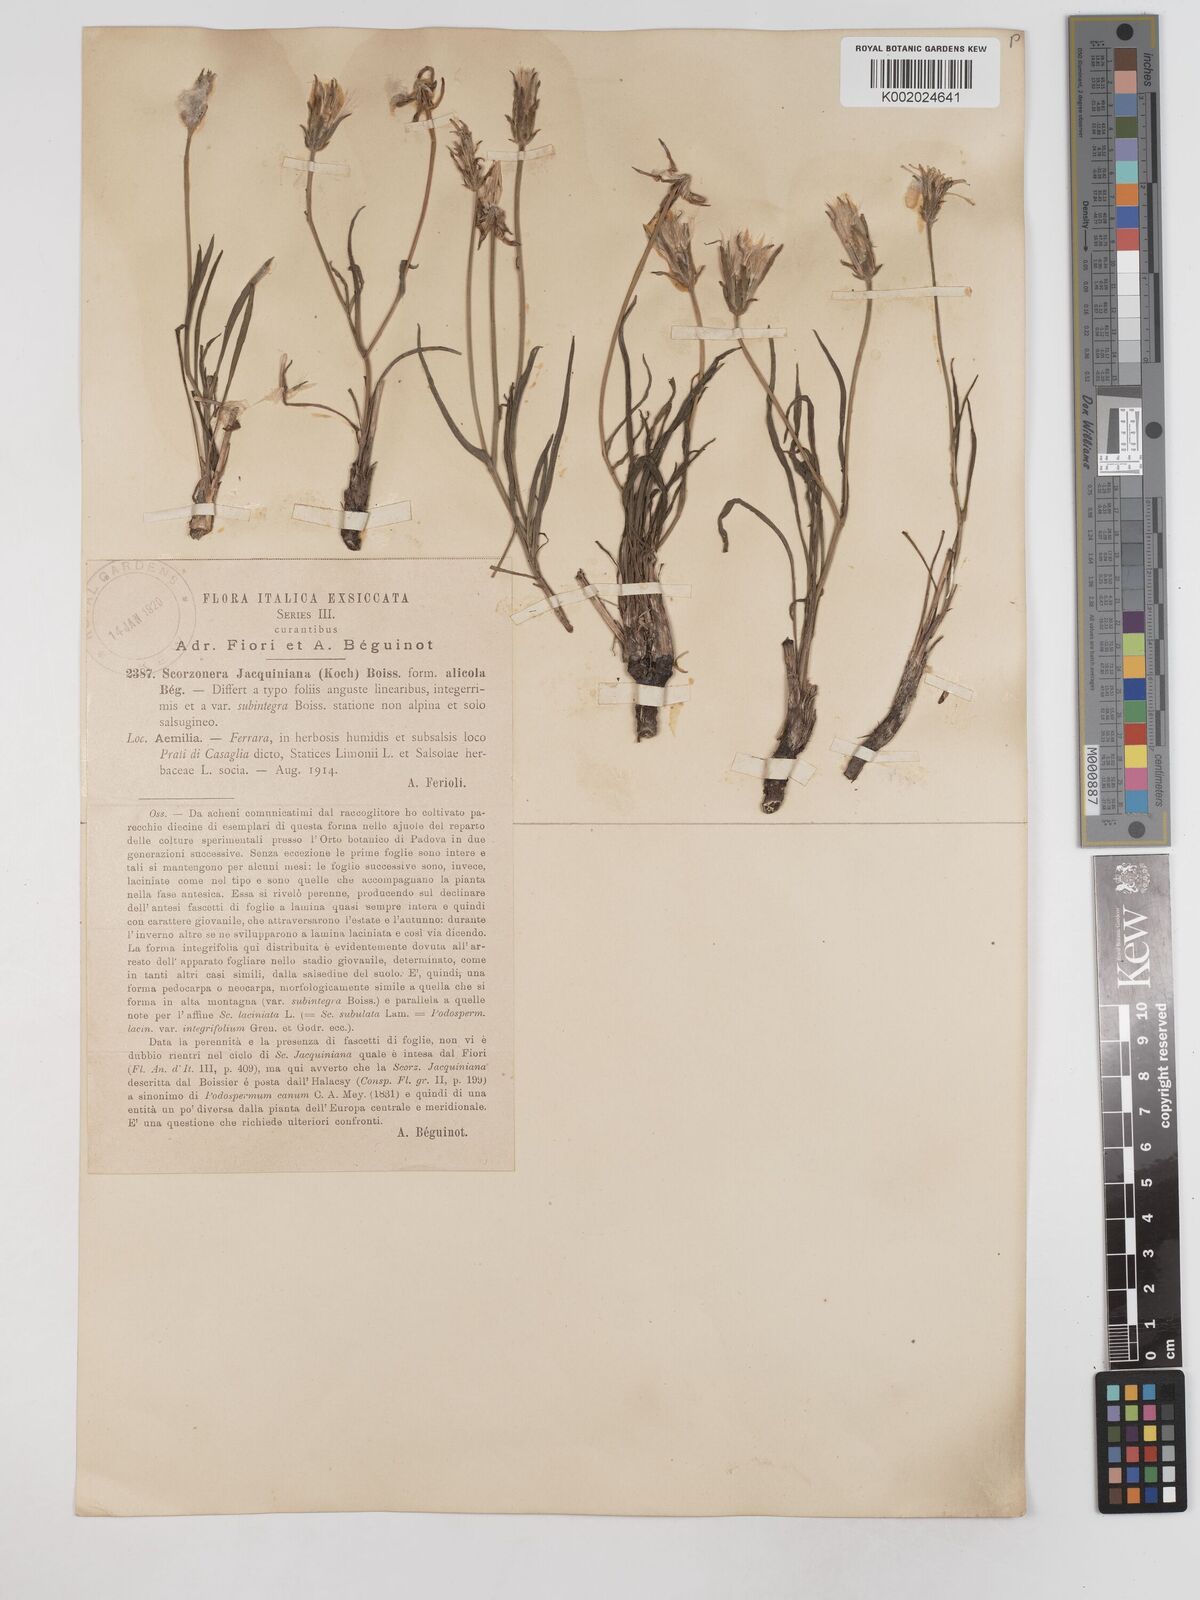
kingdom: Plantae
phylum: Tracheophyta
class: Magnoliopsida
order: Asterales
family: Asteraceae
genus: Scorzonera
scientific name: Scorzonera cana
